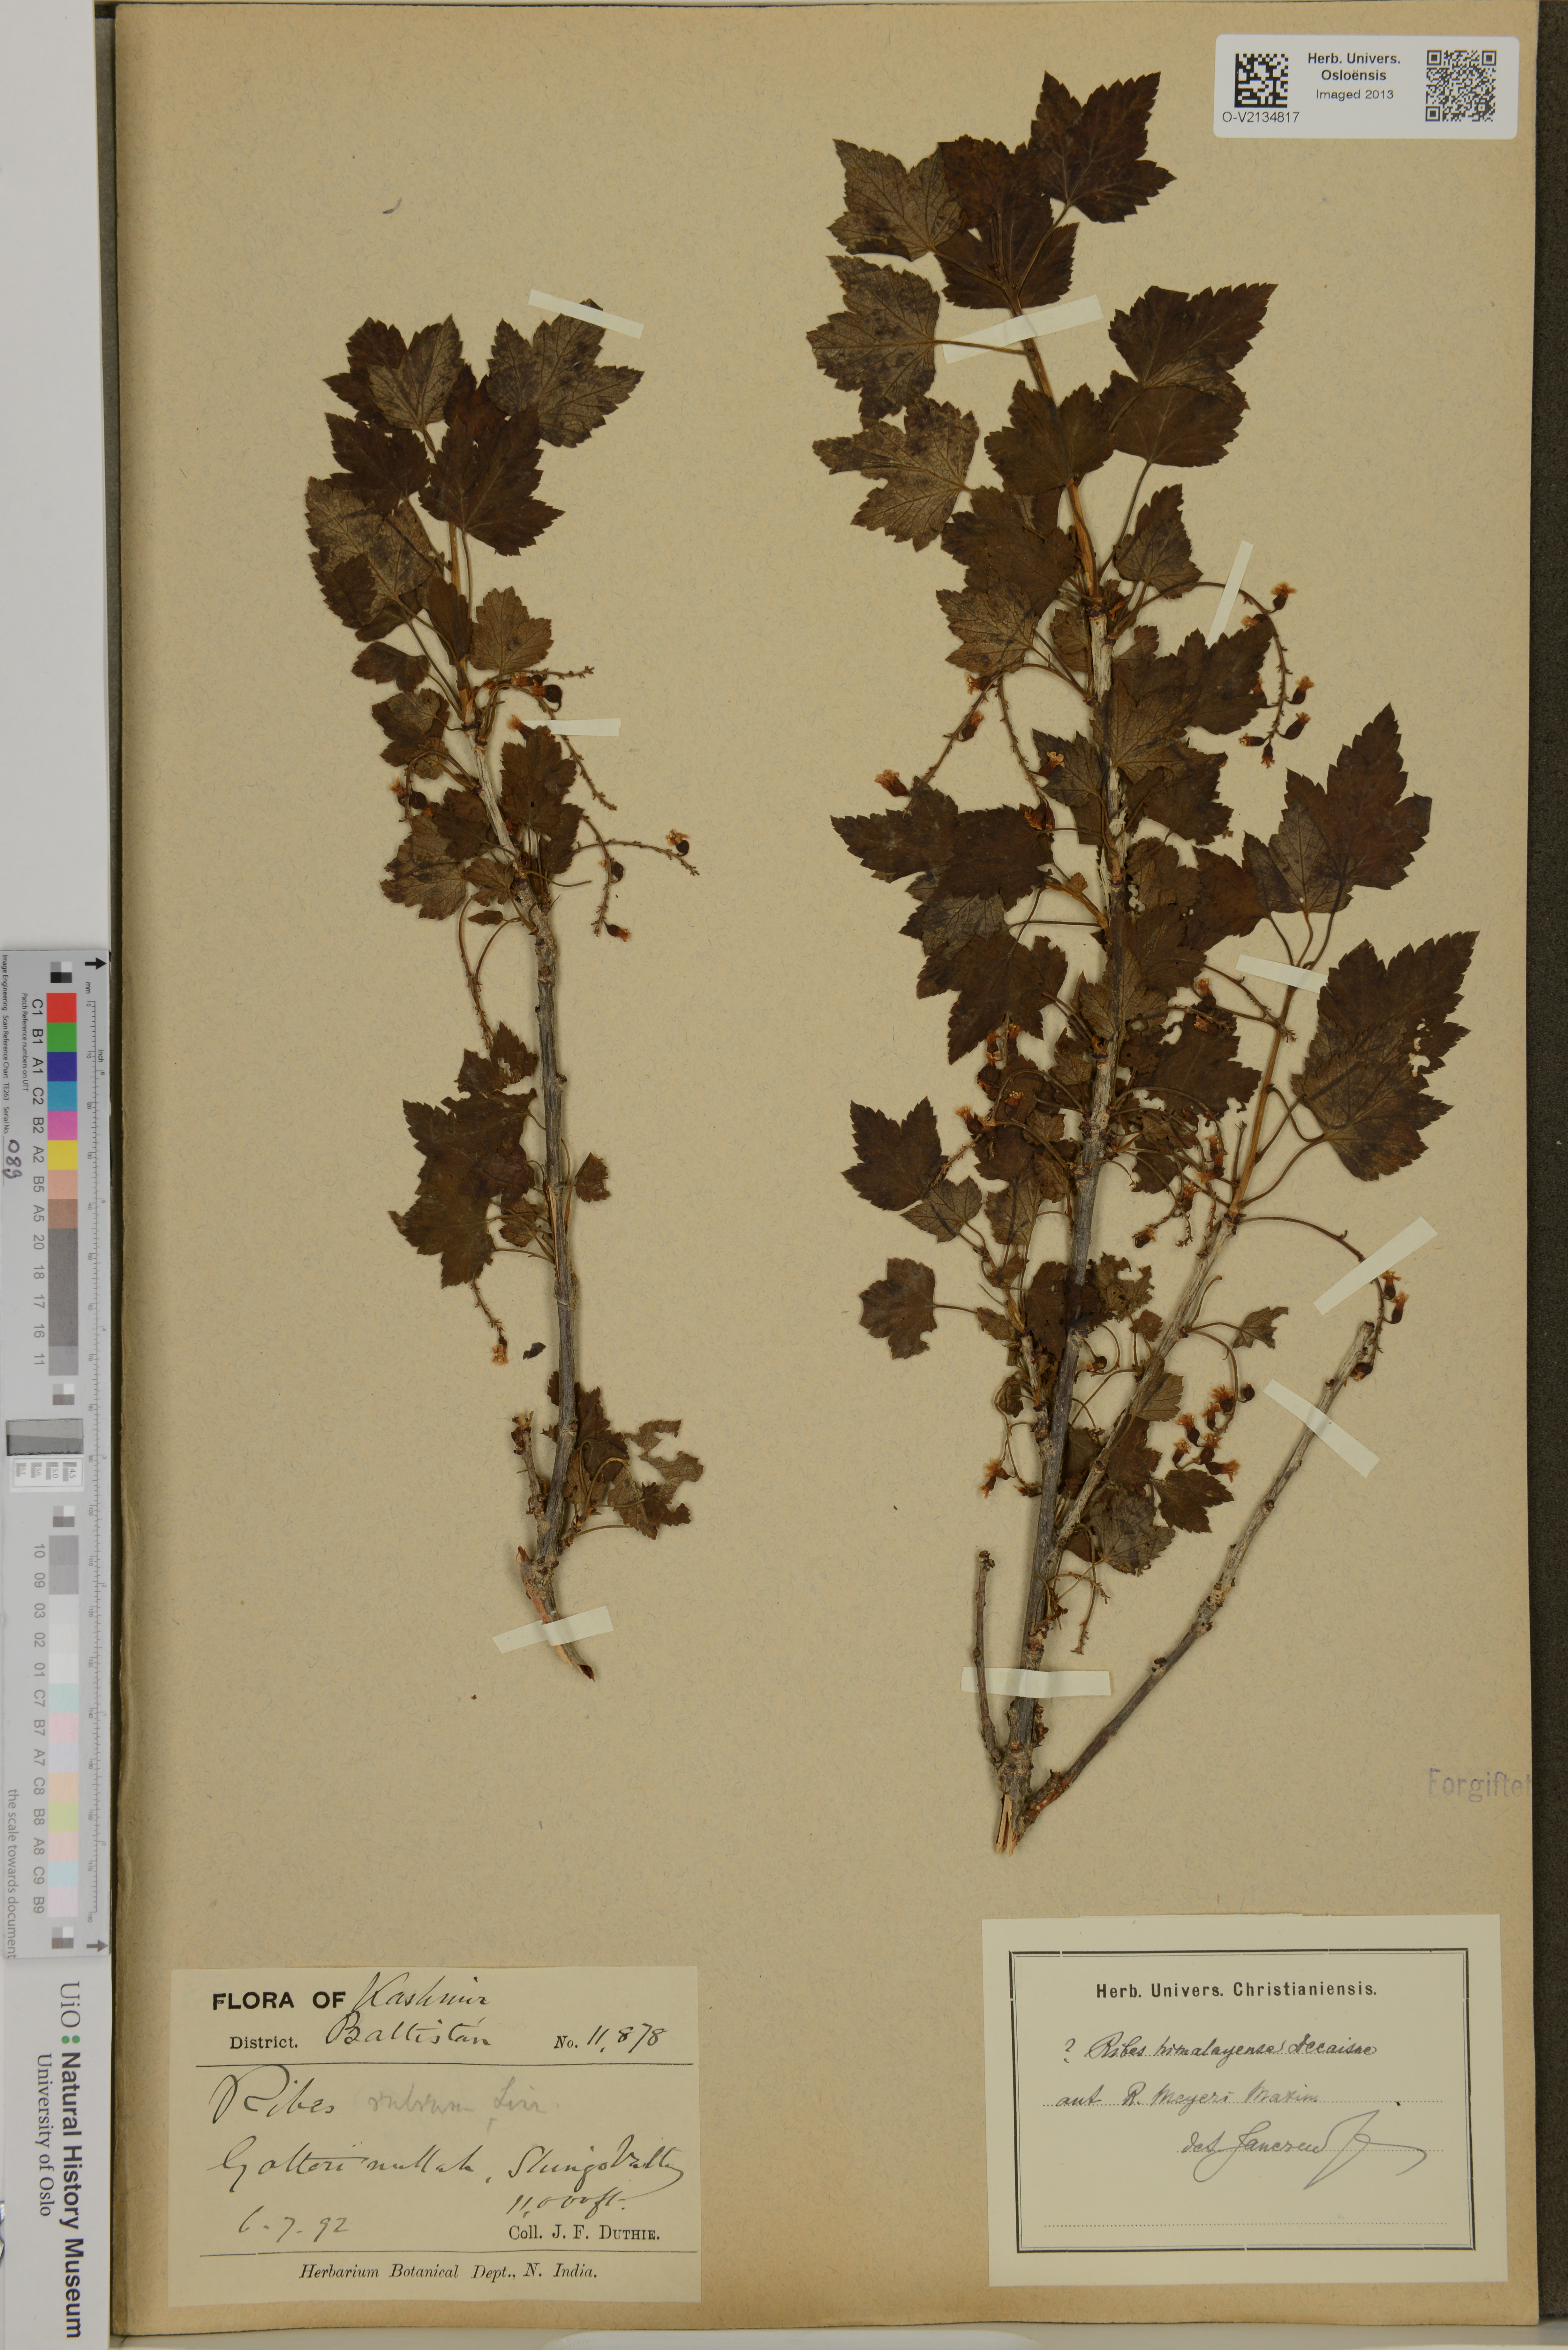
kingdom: Plantae
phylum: Tracheophyta
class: Magnoliopsida
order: Saxifragales
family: Grossulariaceae
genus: Ribes
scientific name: Ribes meyeri
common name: Meyer's currant
